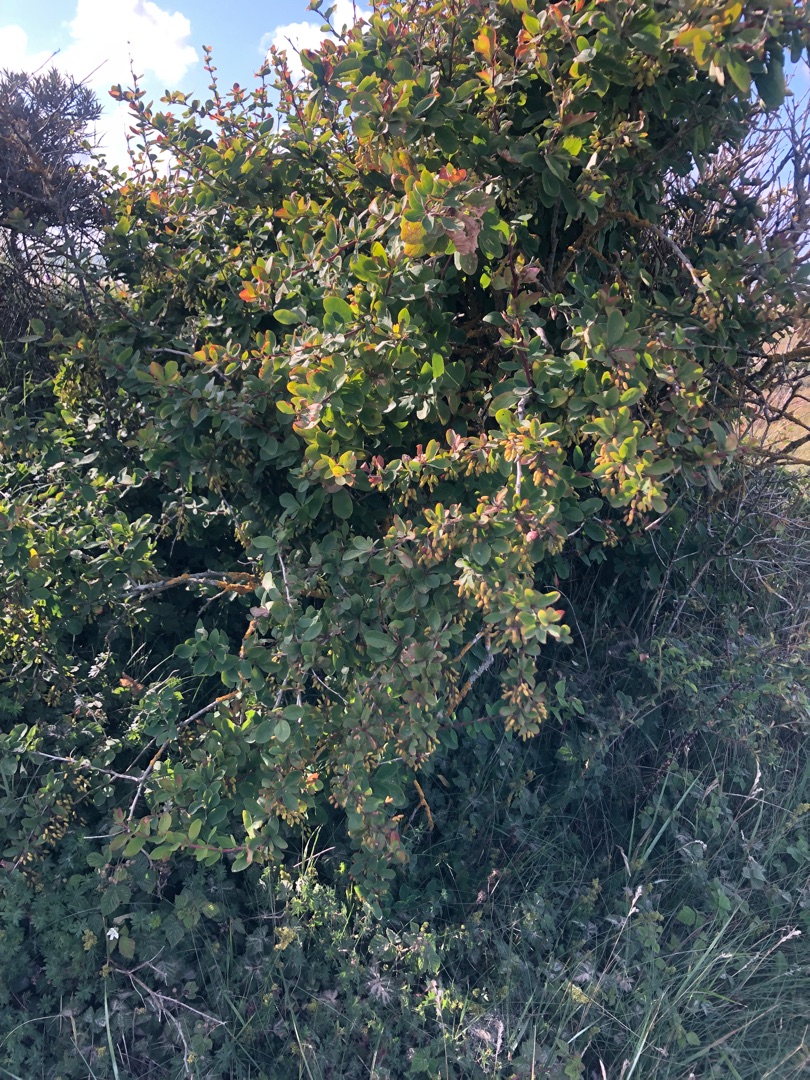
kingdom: Plantae
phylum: Tracheophyta
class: Magnoliopsida
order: Ranunculales
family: Berberidaceae
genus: Berberis
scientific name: Berberis vulgaris
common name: Almindelig berberis
